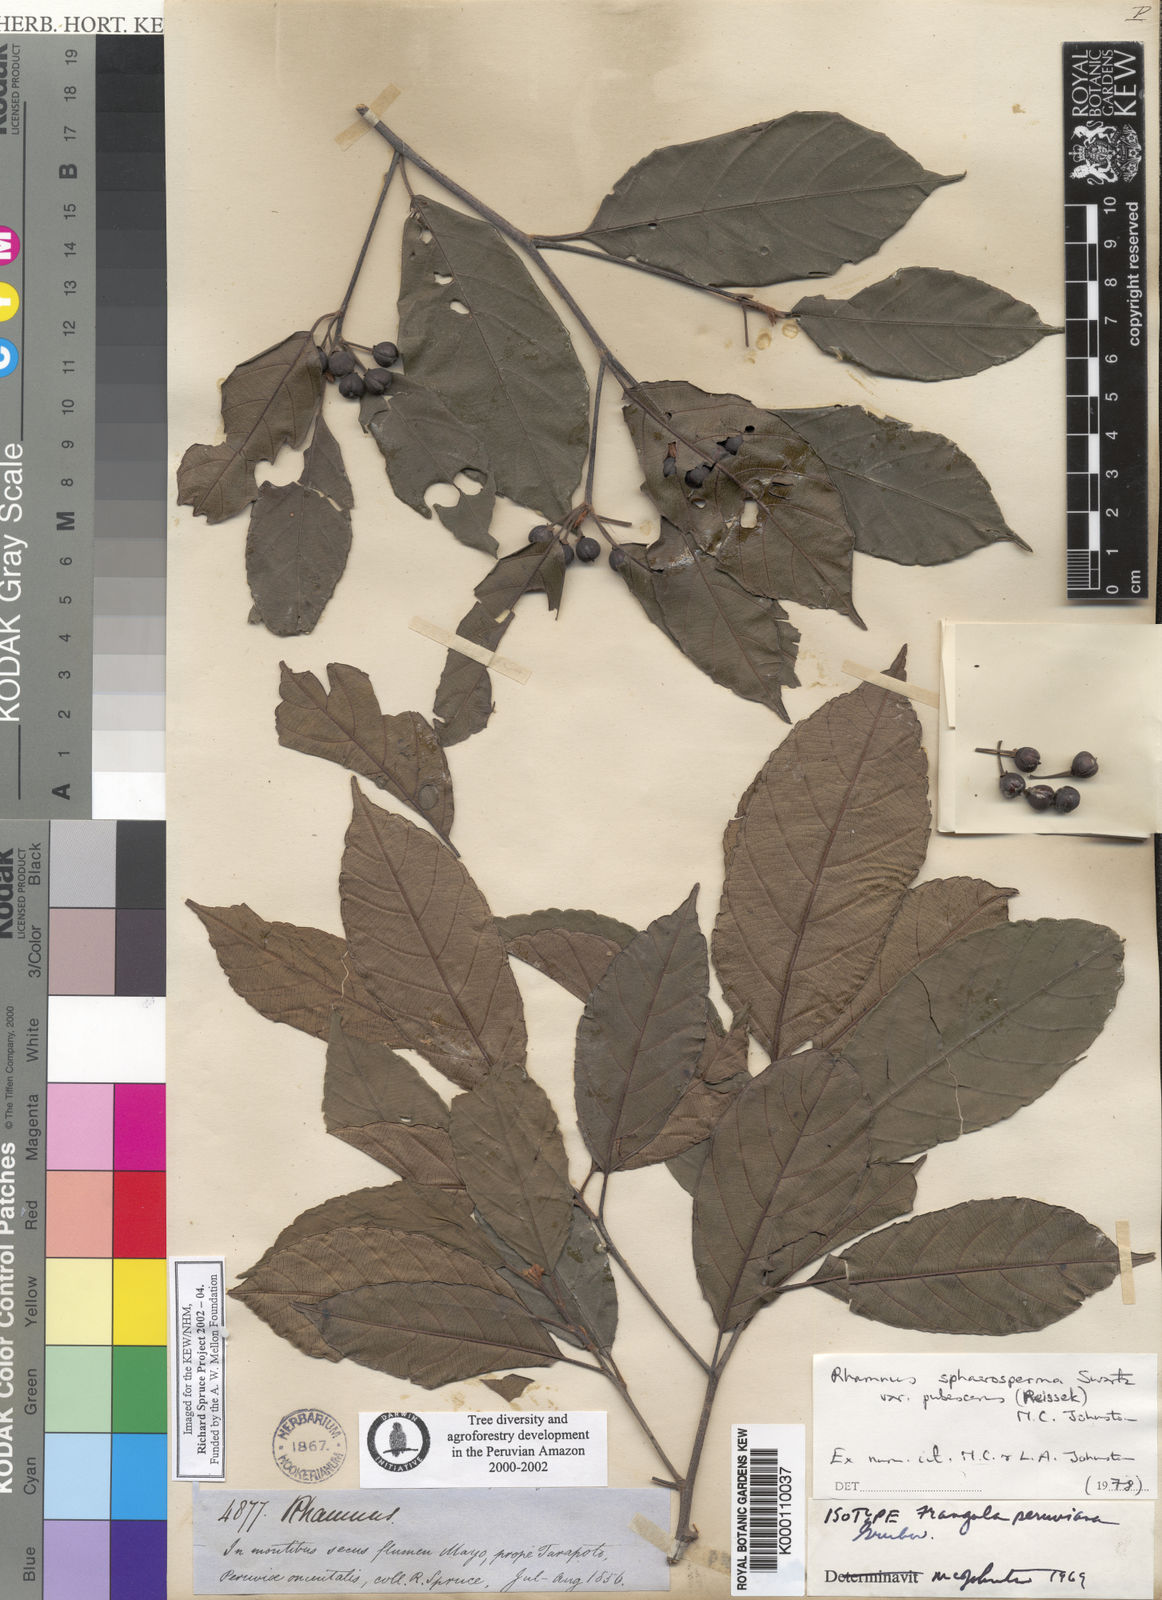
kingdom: Plantae
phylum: Tracheophyta
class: Magnoliopsida
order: Rosales
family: Rhamnaceae
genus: Frangula
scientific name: Frangula
